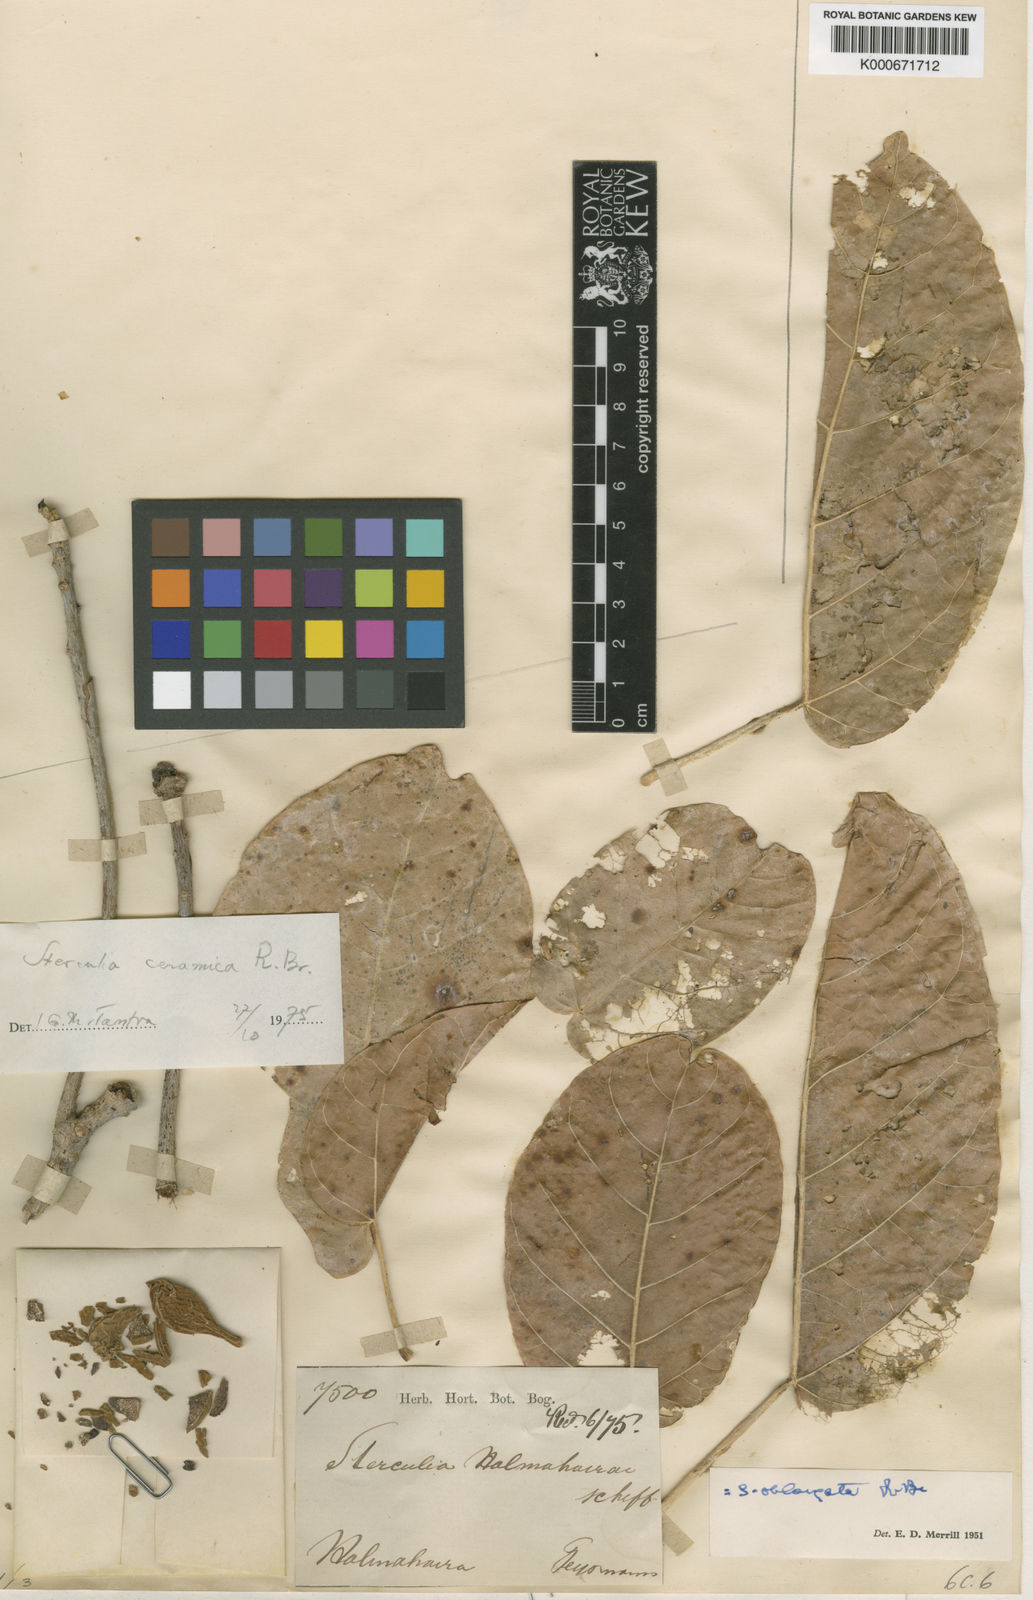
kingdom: Plantae
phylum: Tracheophyta
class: Magnoliopsida
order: Malvales
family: Malvaceae
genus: Sterculia
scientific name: Sterculia ceramica
